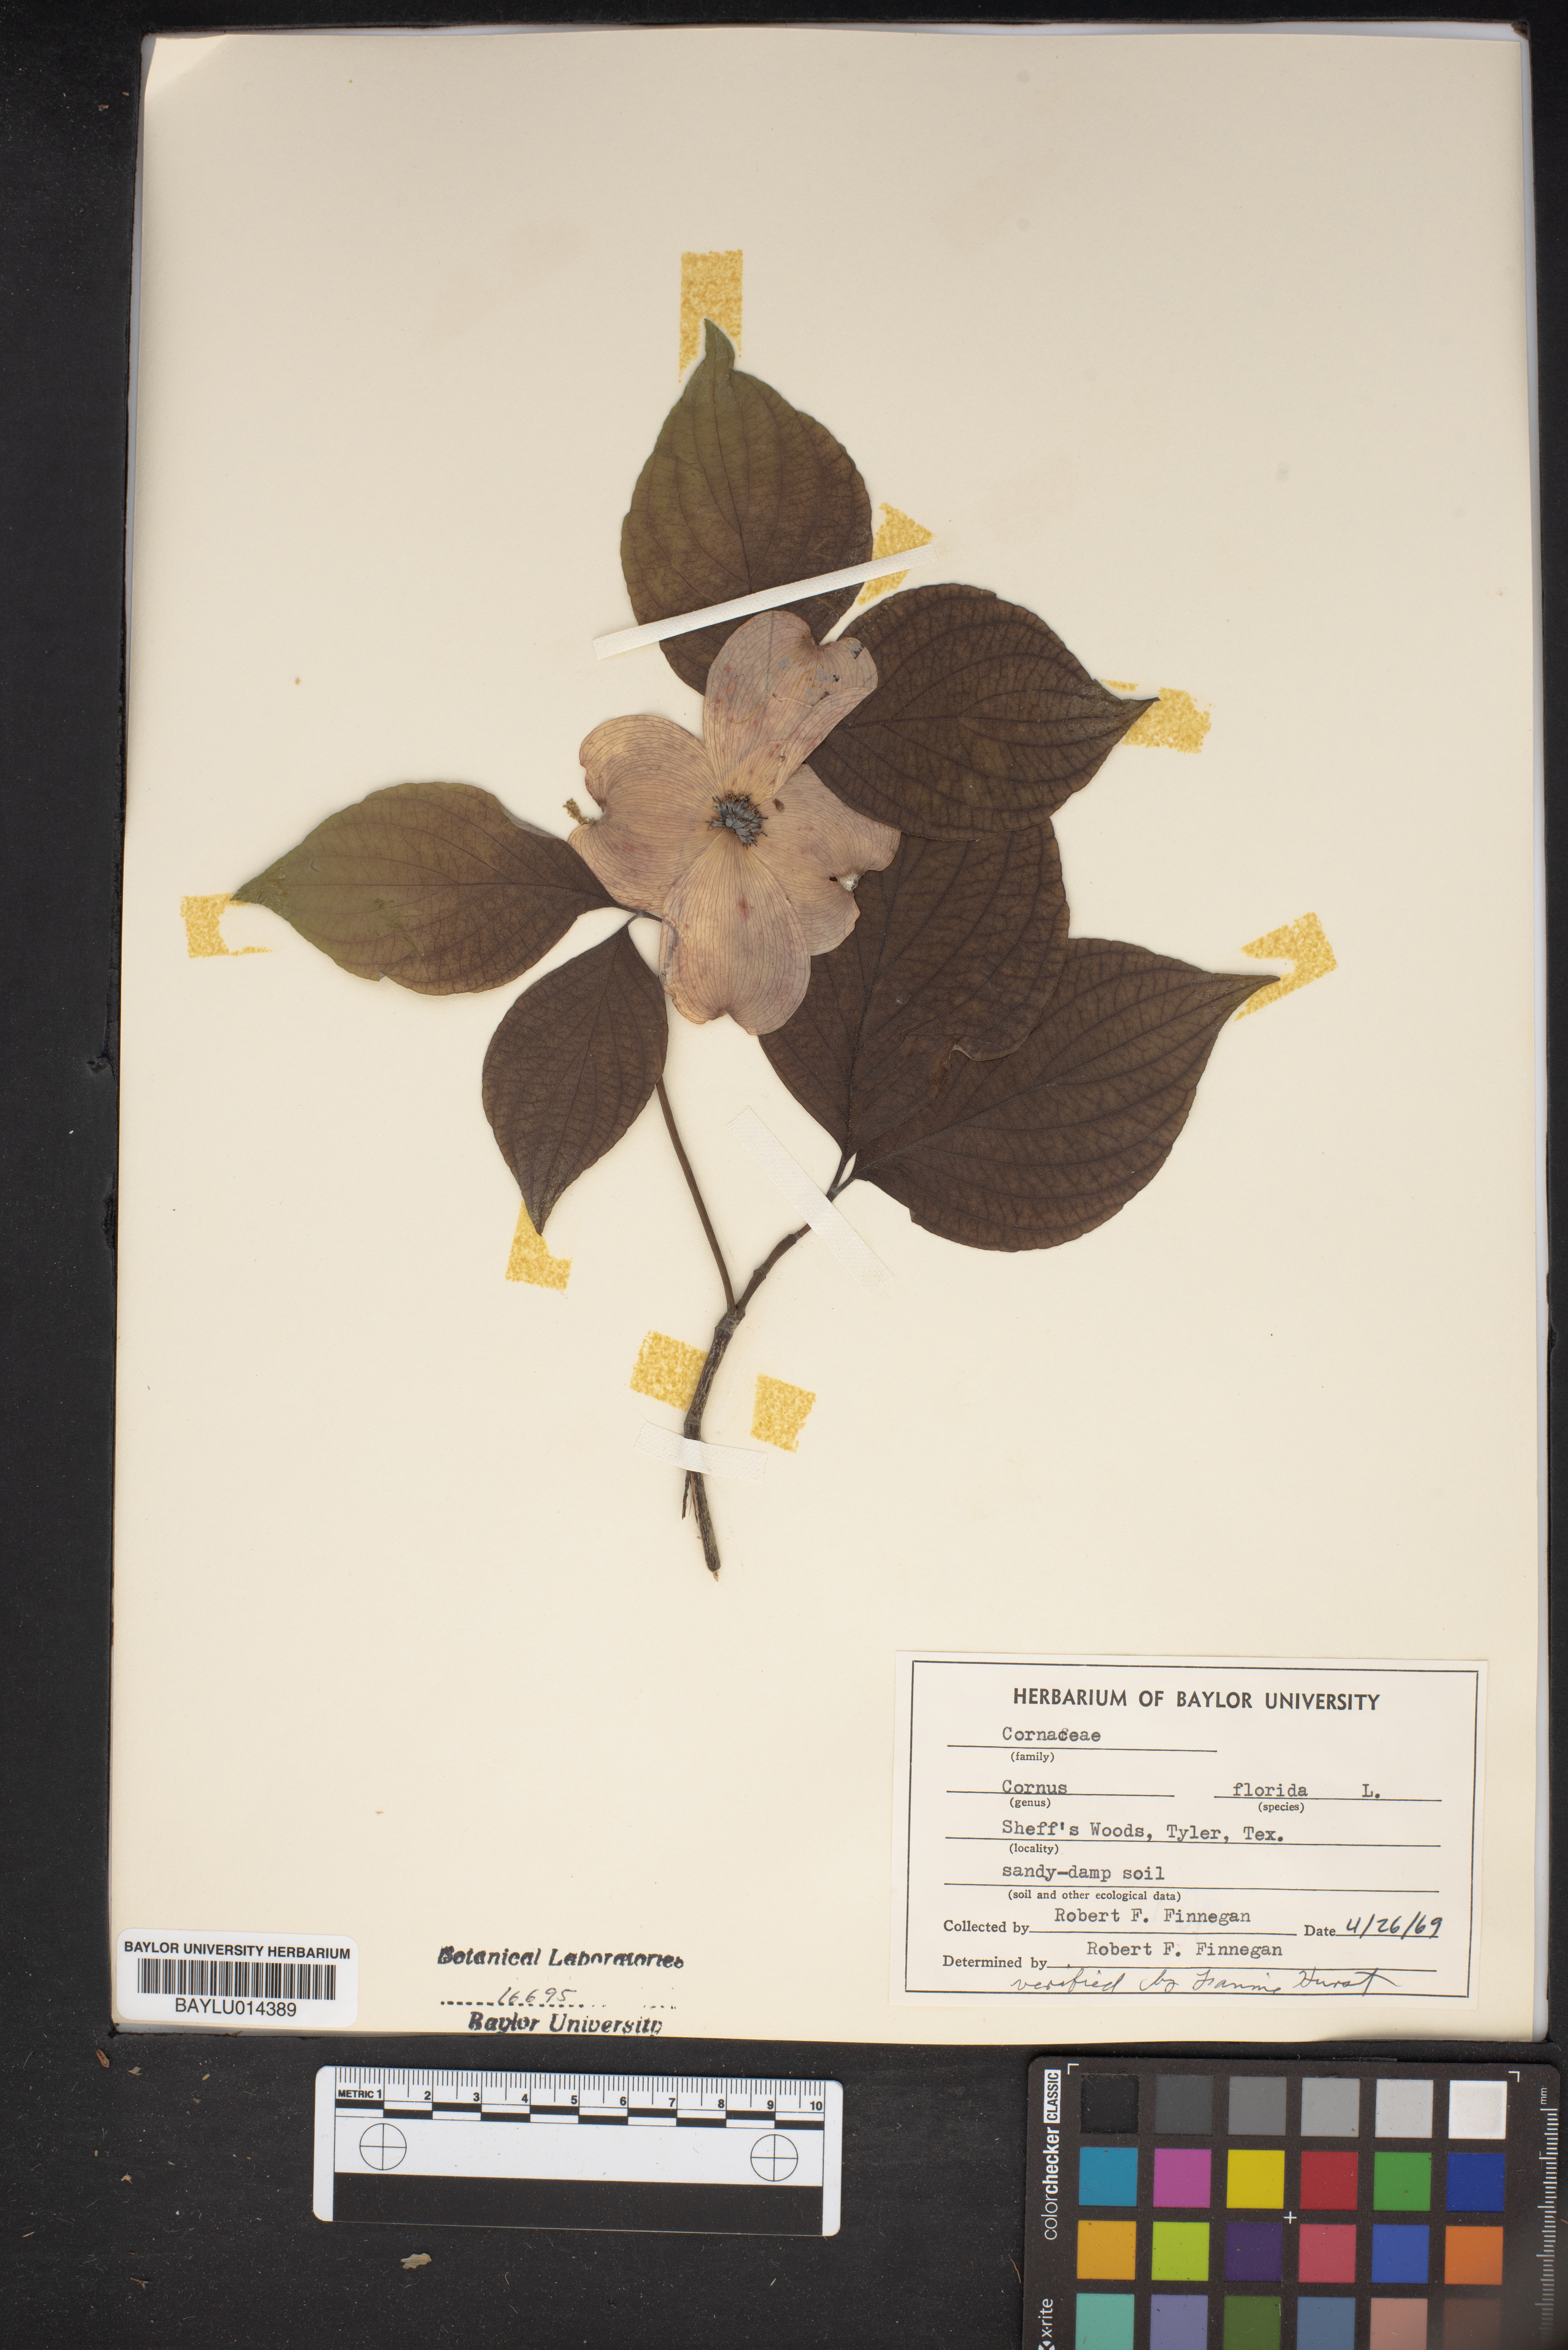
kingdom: Plantae
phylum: Tracheophyta
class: Magnoliopsida
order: Cornales
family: Cornaceae
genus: Cornus
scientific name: Cornus florida
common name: Flowering dogwood
